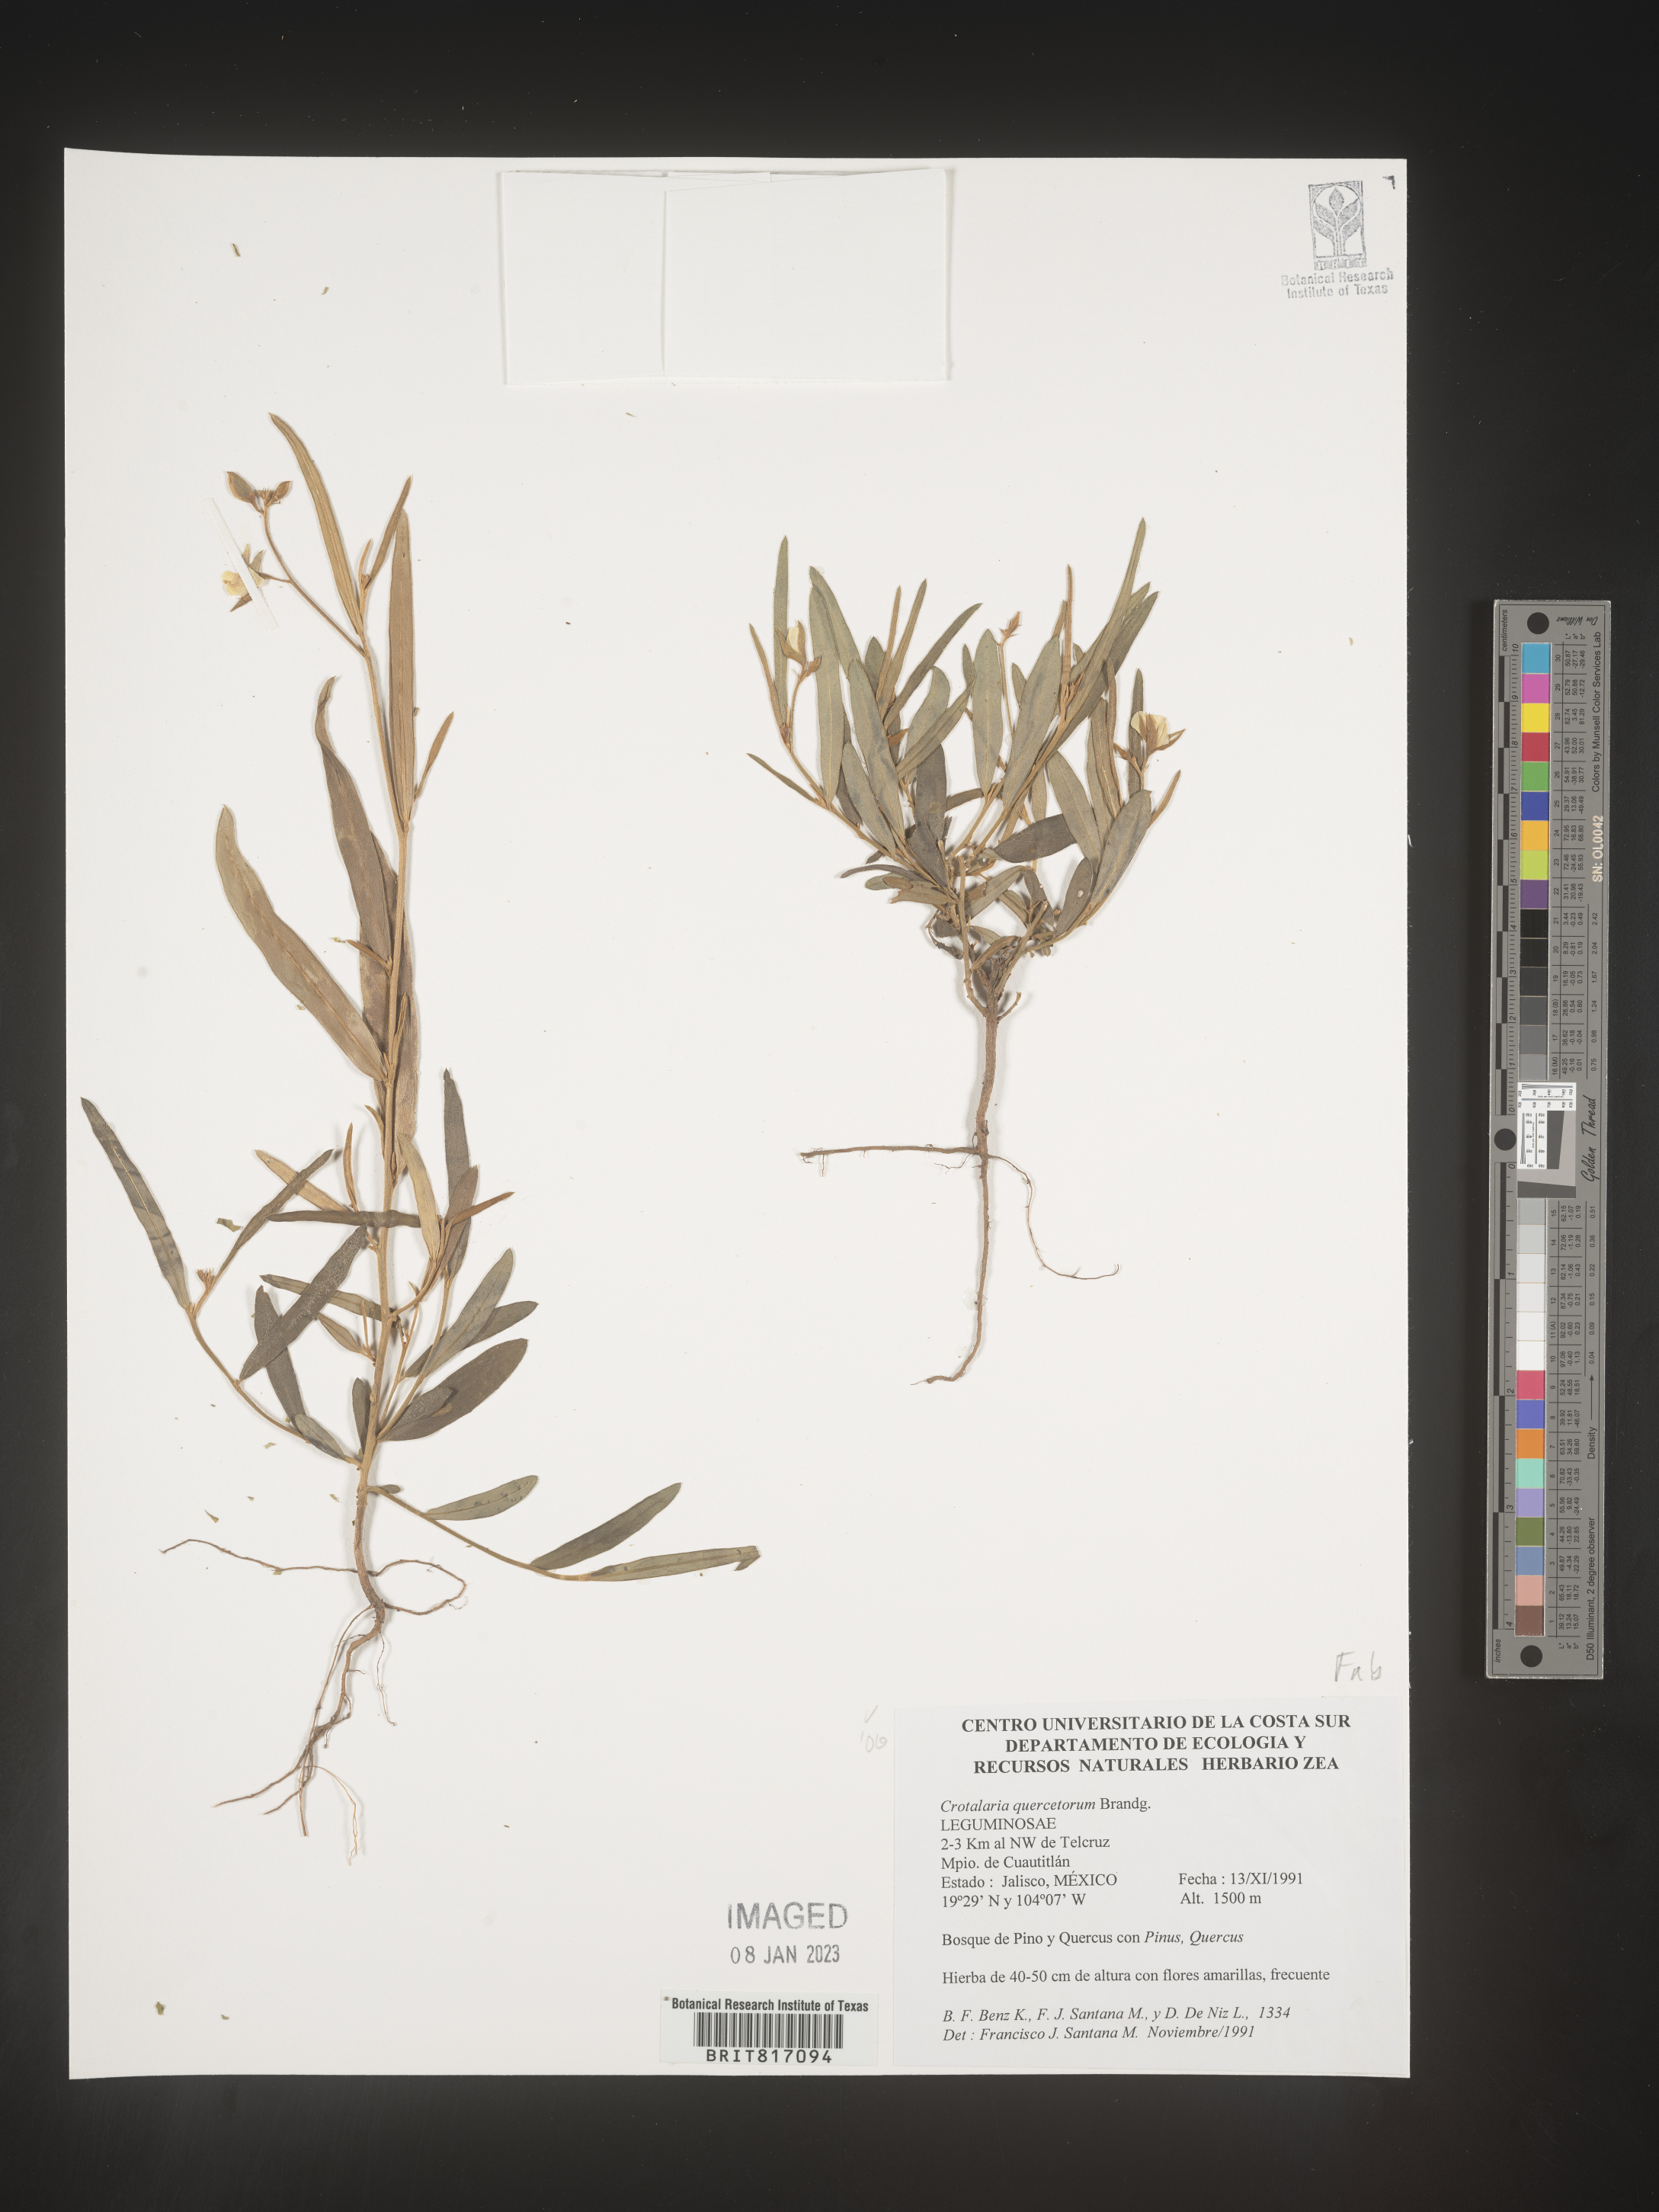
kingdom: Plantae
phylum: Tracheophyta
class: Magnoliopsida
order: Fabales
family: Fabaceae
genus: Crotalaria
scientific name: Crotalaria
